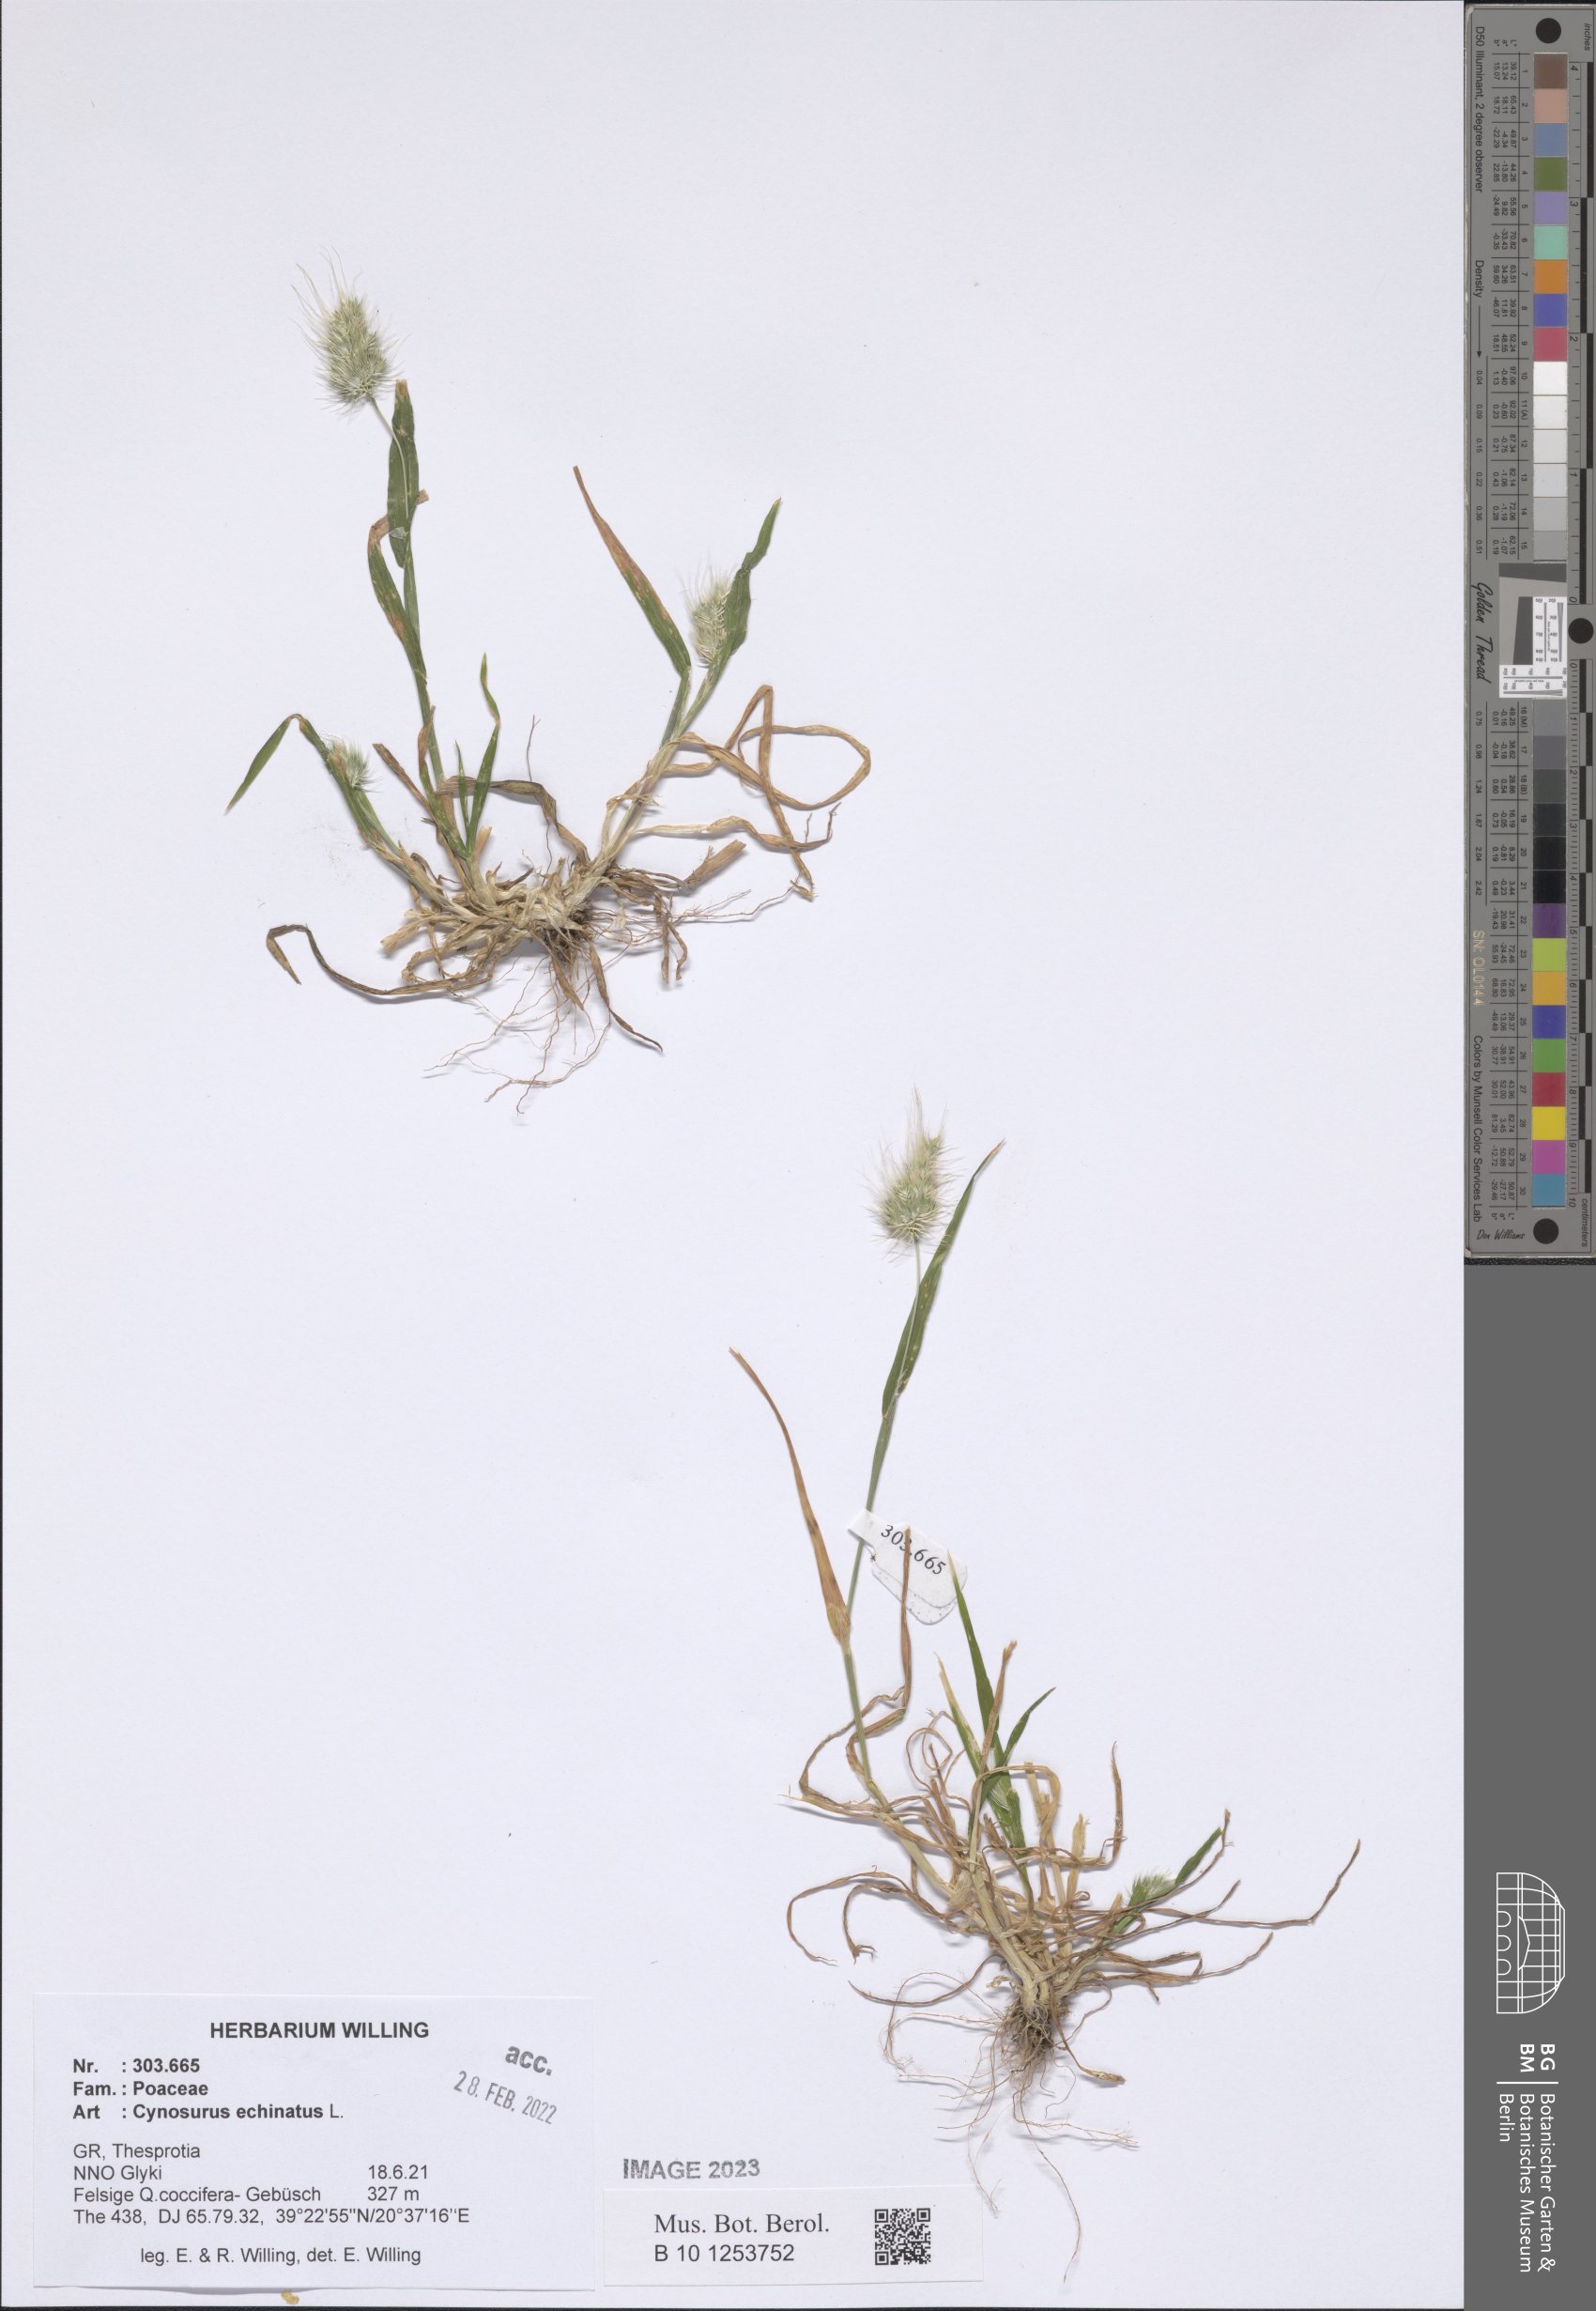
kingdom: Plantae
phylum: Tracheophyta
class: Liliopsida
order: Poales
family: Poaceae
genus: Cynosurus
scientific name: Cynosurus echinatus
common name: Rough dog's-tail
